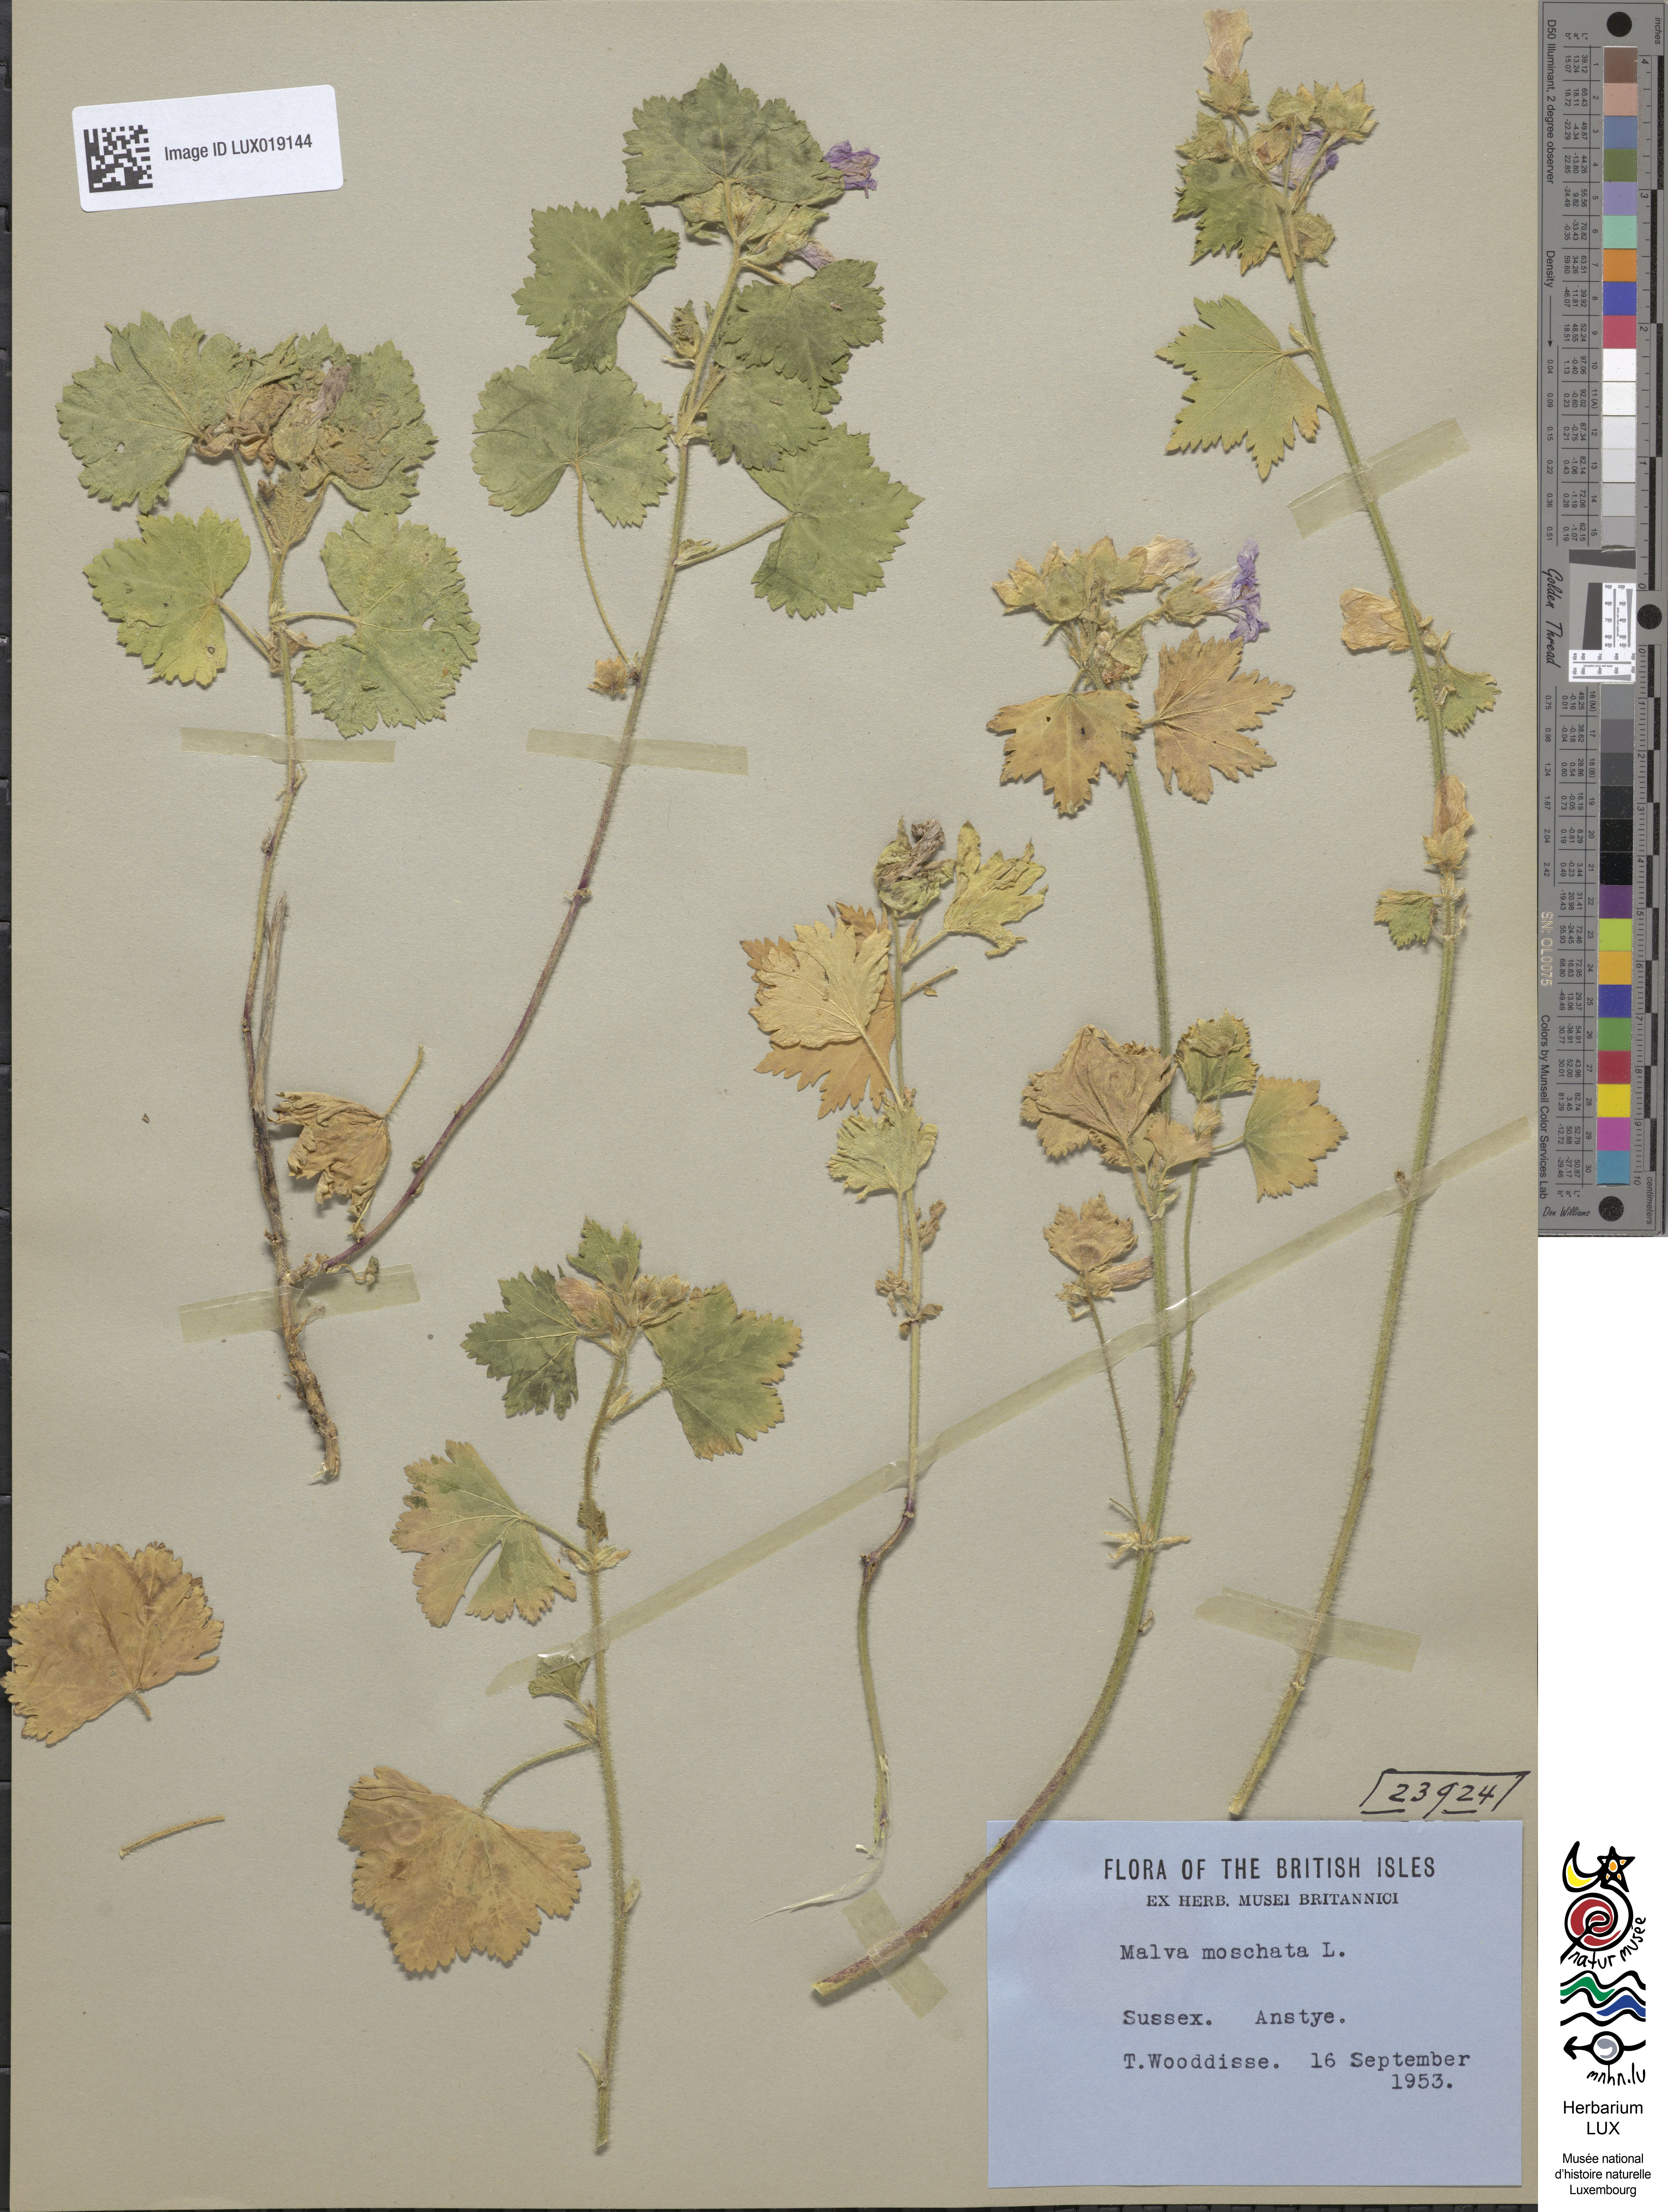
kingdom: Plantae
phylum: Tracheophyta
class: Magnoliopsida
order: Malvales
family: Malvaceae
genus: Malva
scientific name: Malva moschata
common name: Musk mallow
